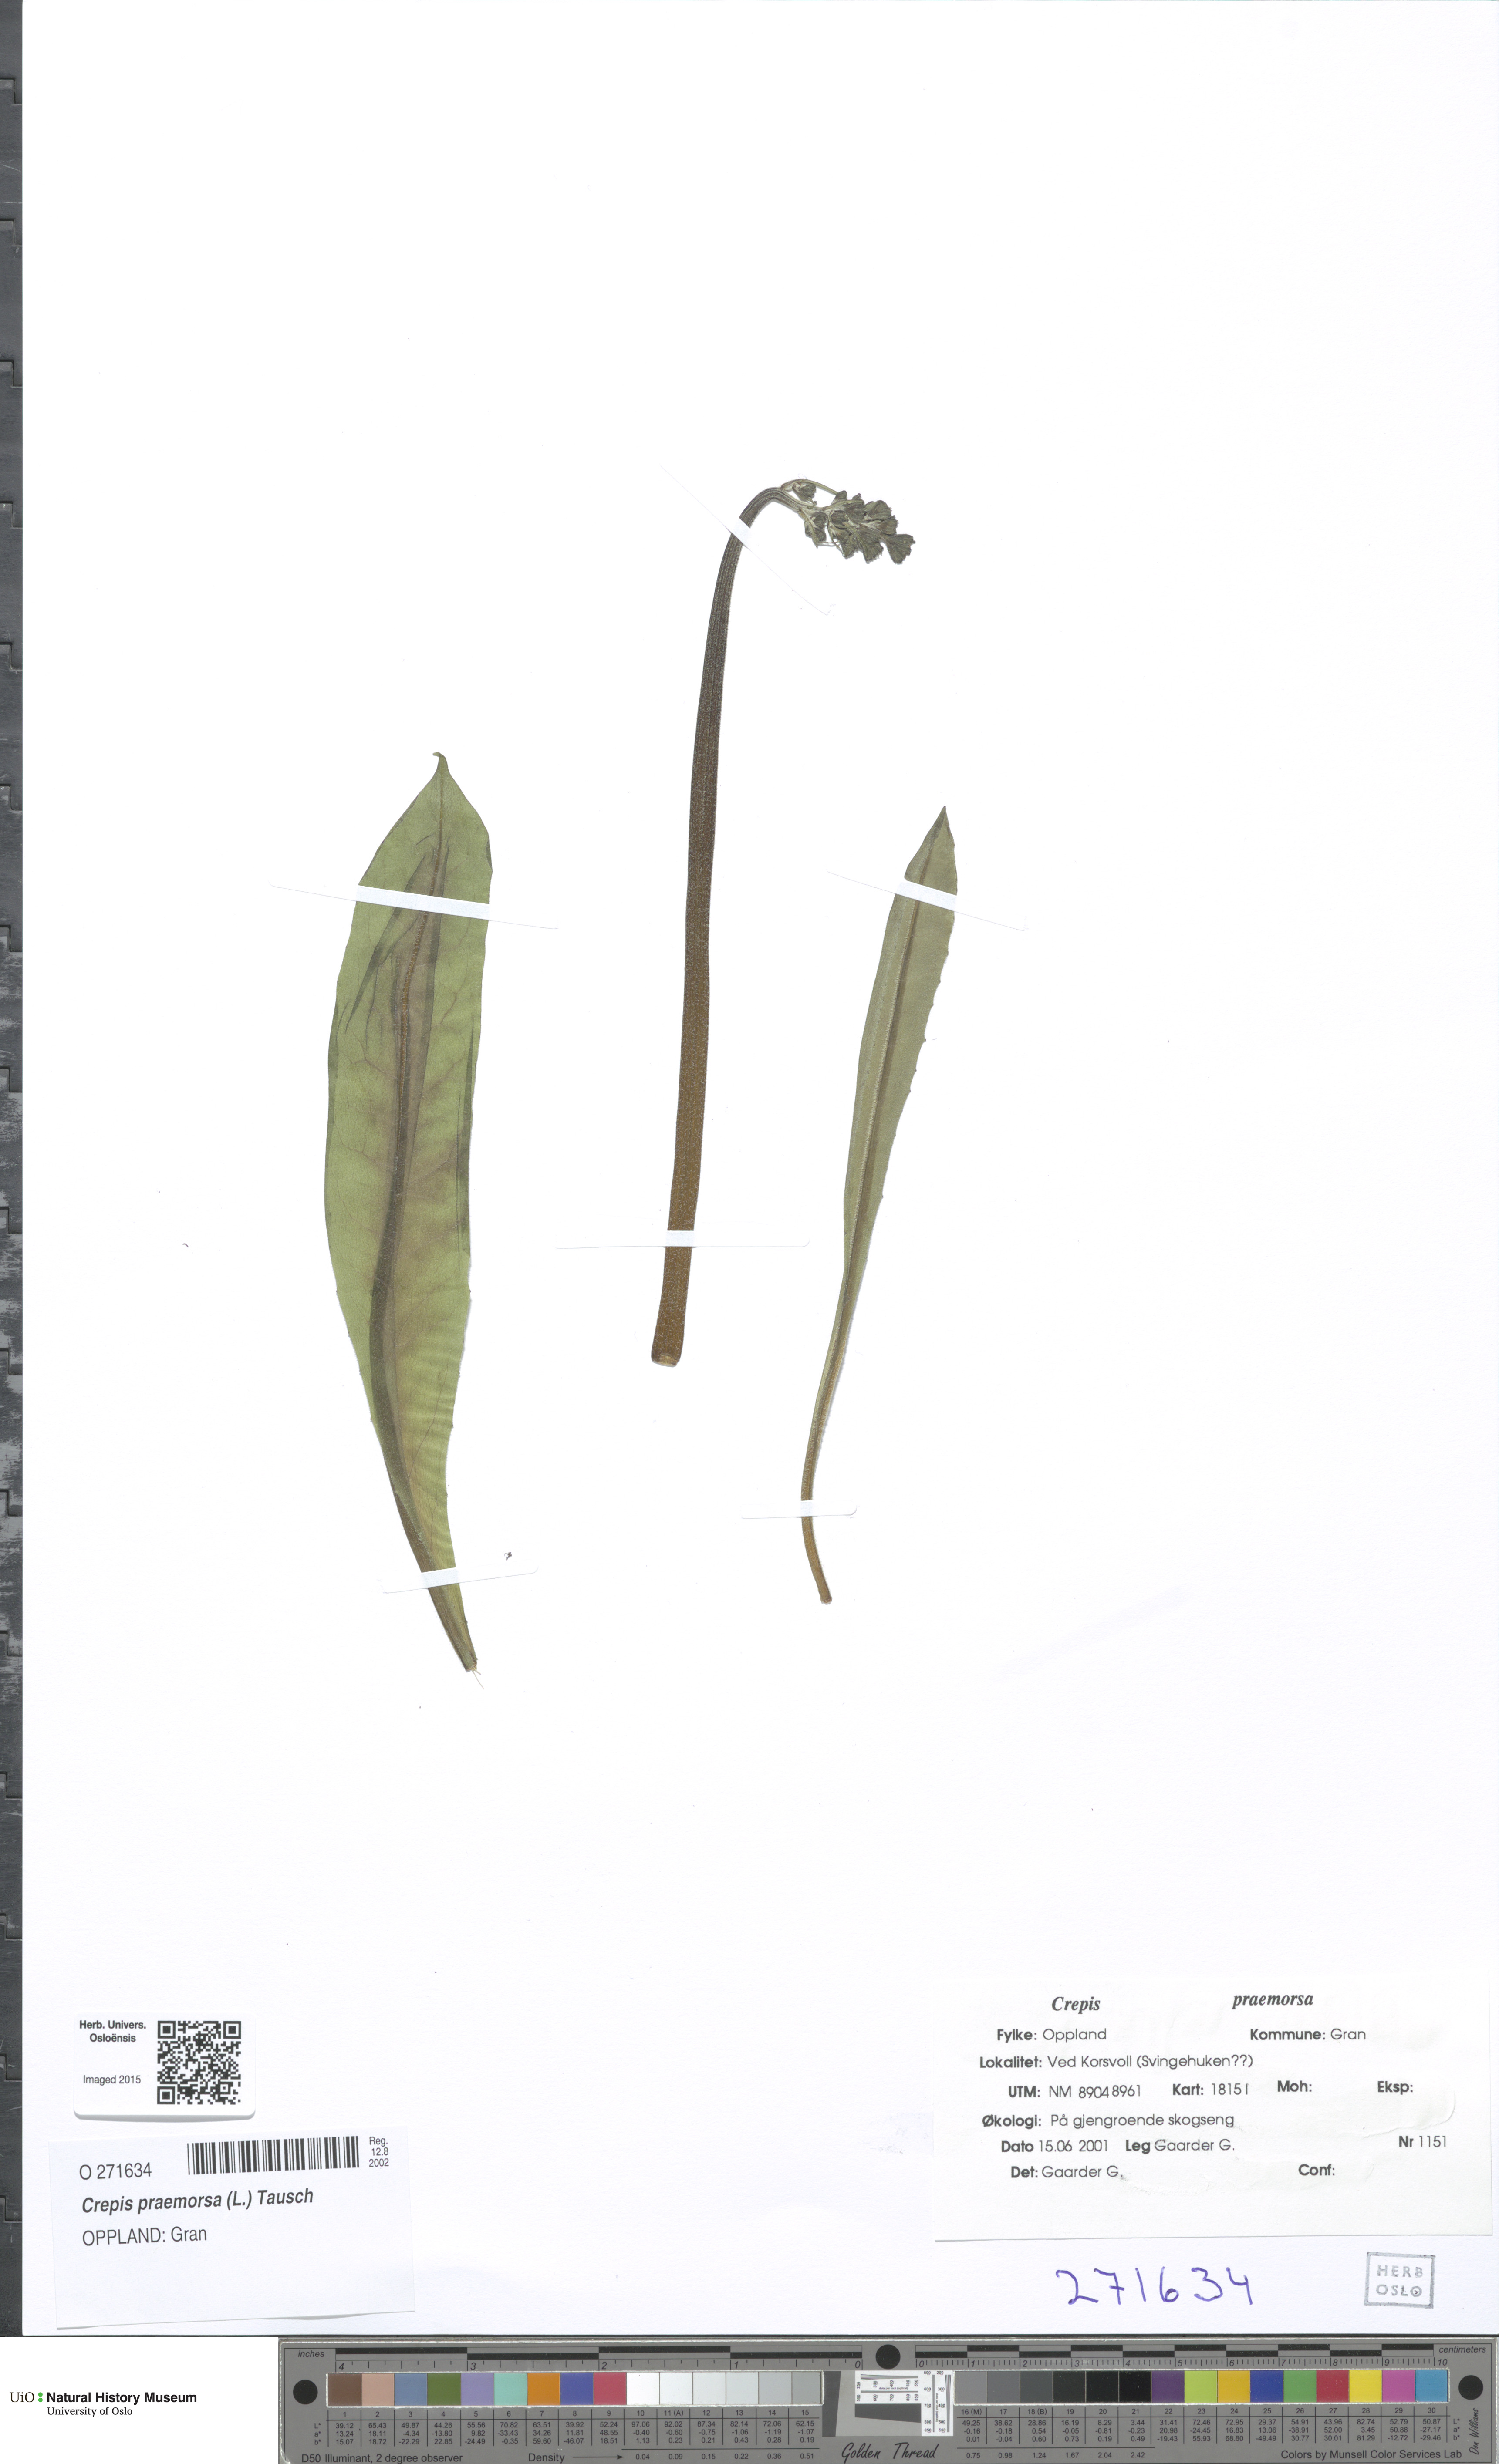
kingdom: Plantae
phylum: Tracheophyta
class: Magnoliopsida
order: Asterales
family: Asteraceae
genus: Crepis
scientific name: Crepis praemorsa
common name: Leafless hawk's-beard
